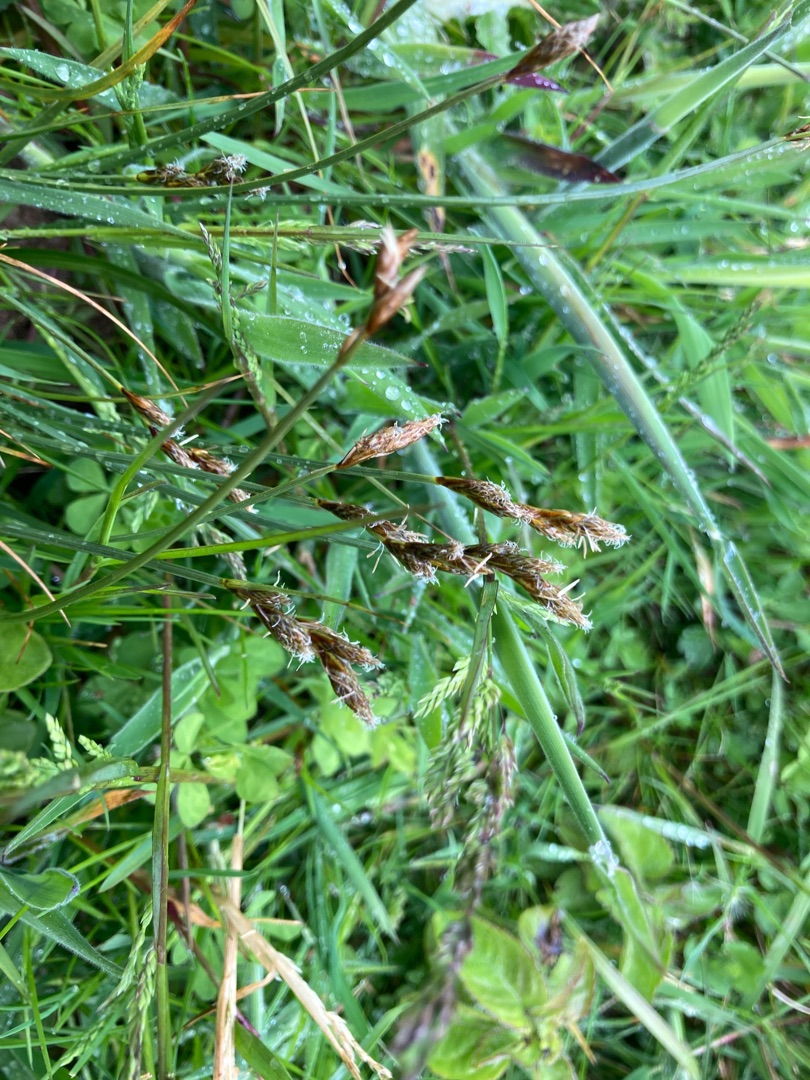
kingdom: Plantae
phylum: Tracheophyta
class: Liliopsida
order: Poales
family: Cyperaceae
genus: Carex
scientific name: Carex leporina
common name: Hare-star
